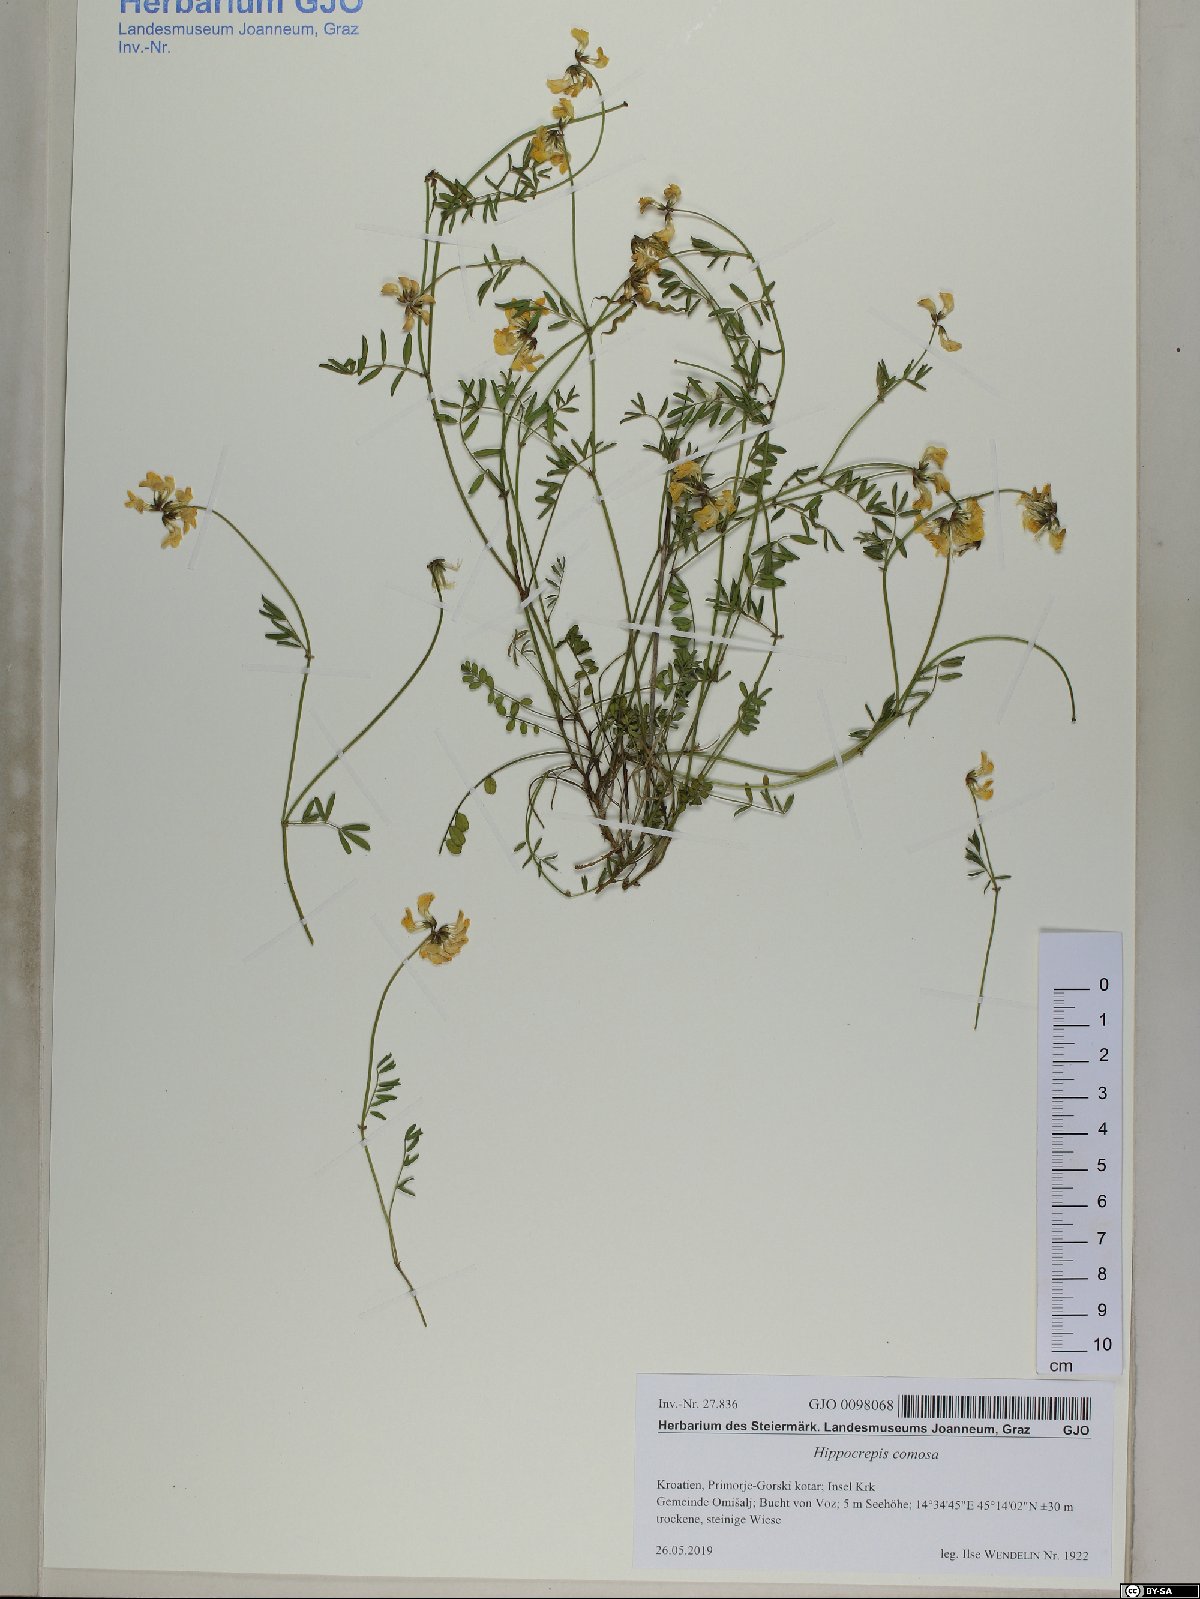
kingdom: Plantae
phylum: Tracheophyta
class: Magnoliopsida
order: Fabales
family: Fabaceae
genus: Hippocrepis
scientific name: Hippocrepis comosa
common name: Horseshoe vetch
